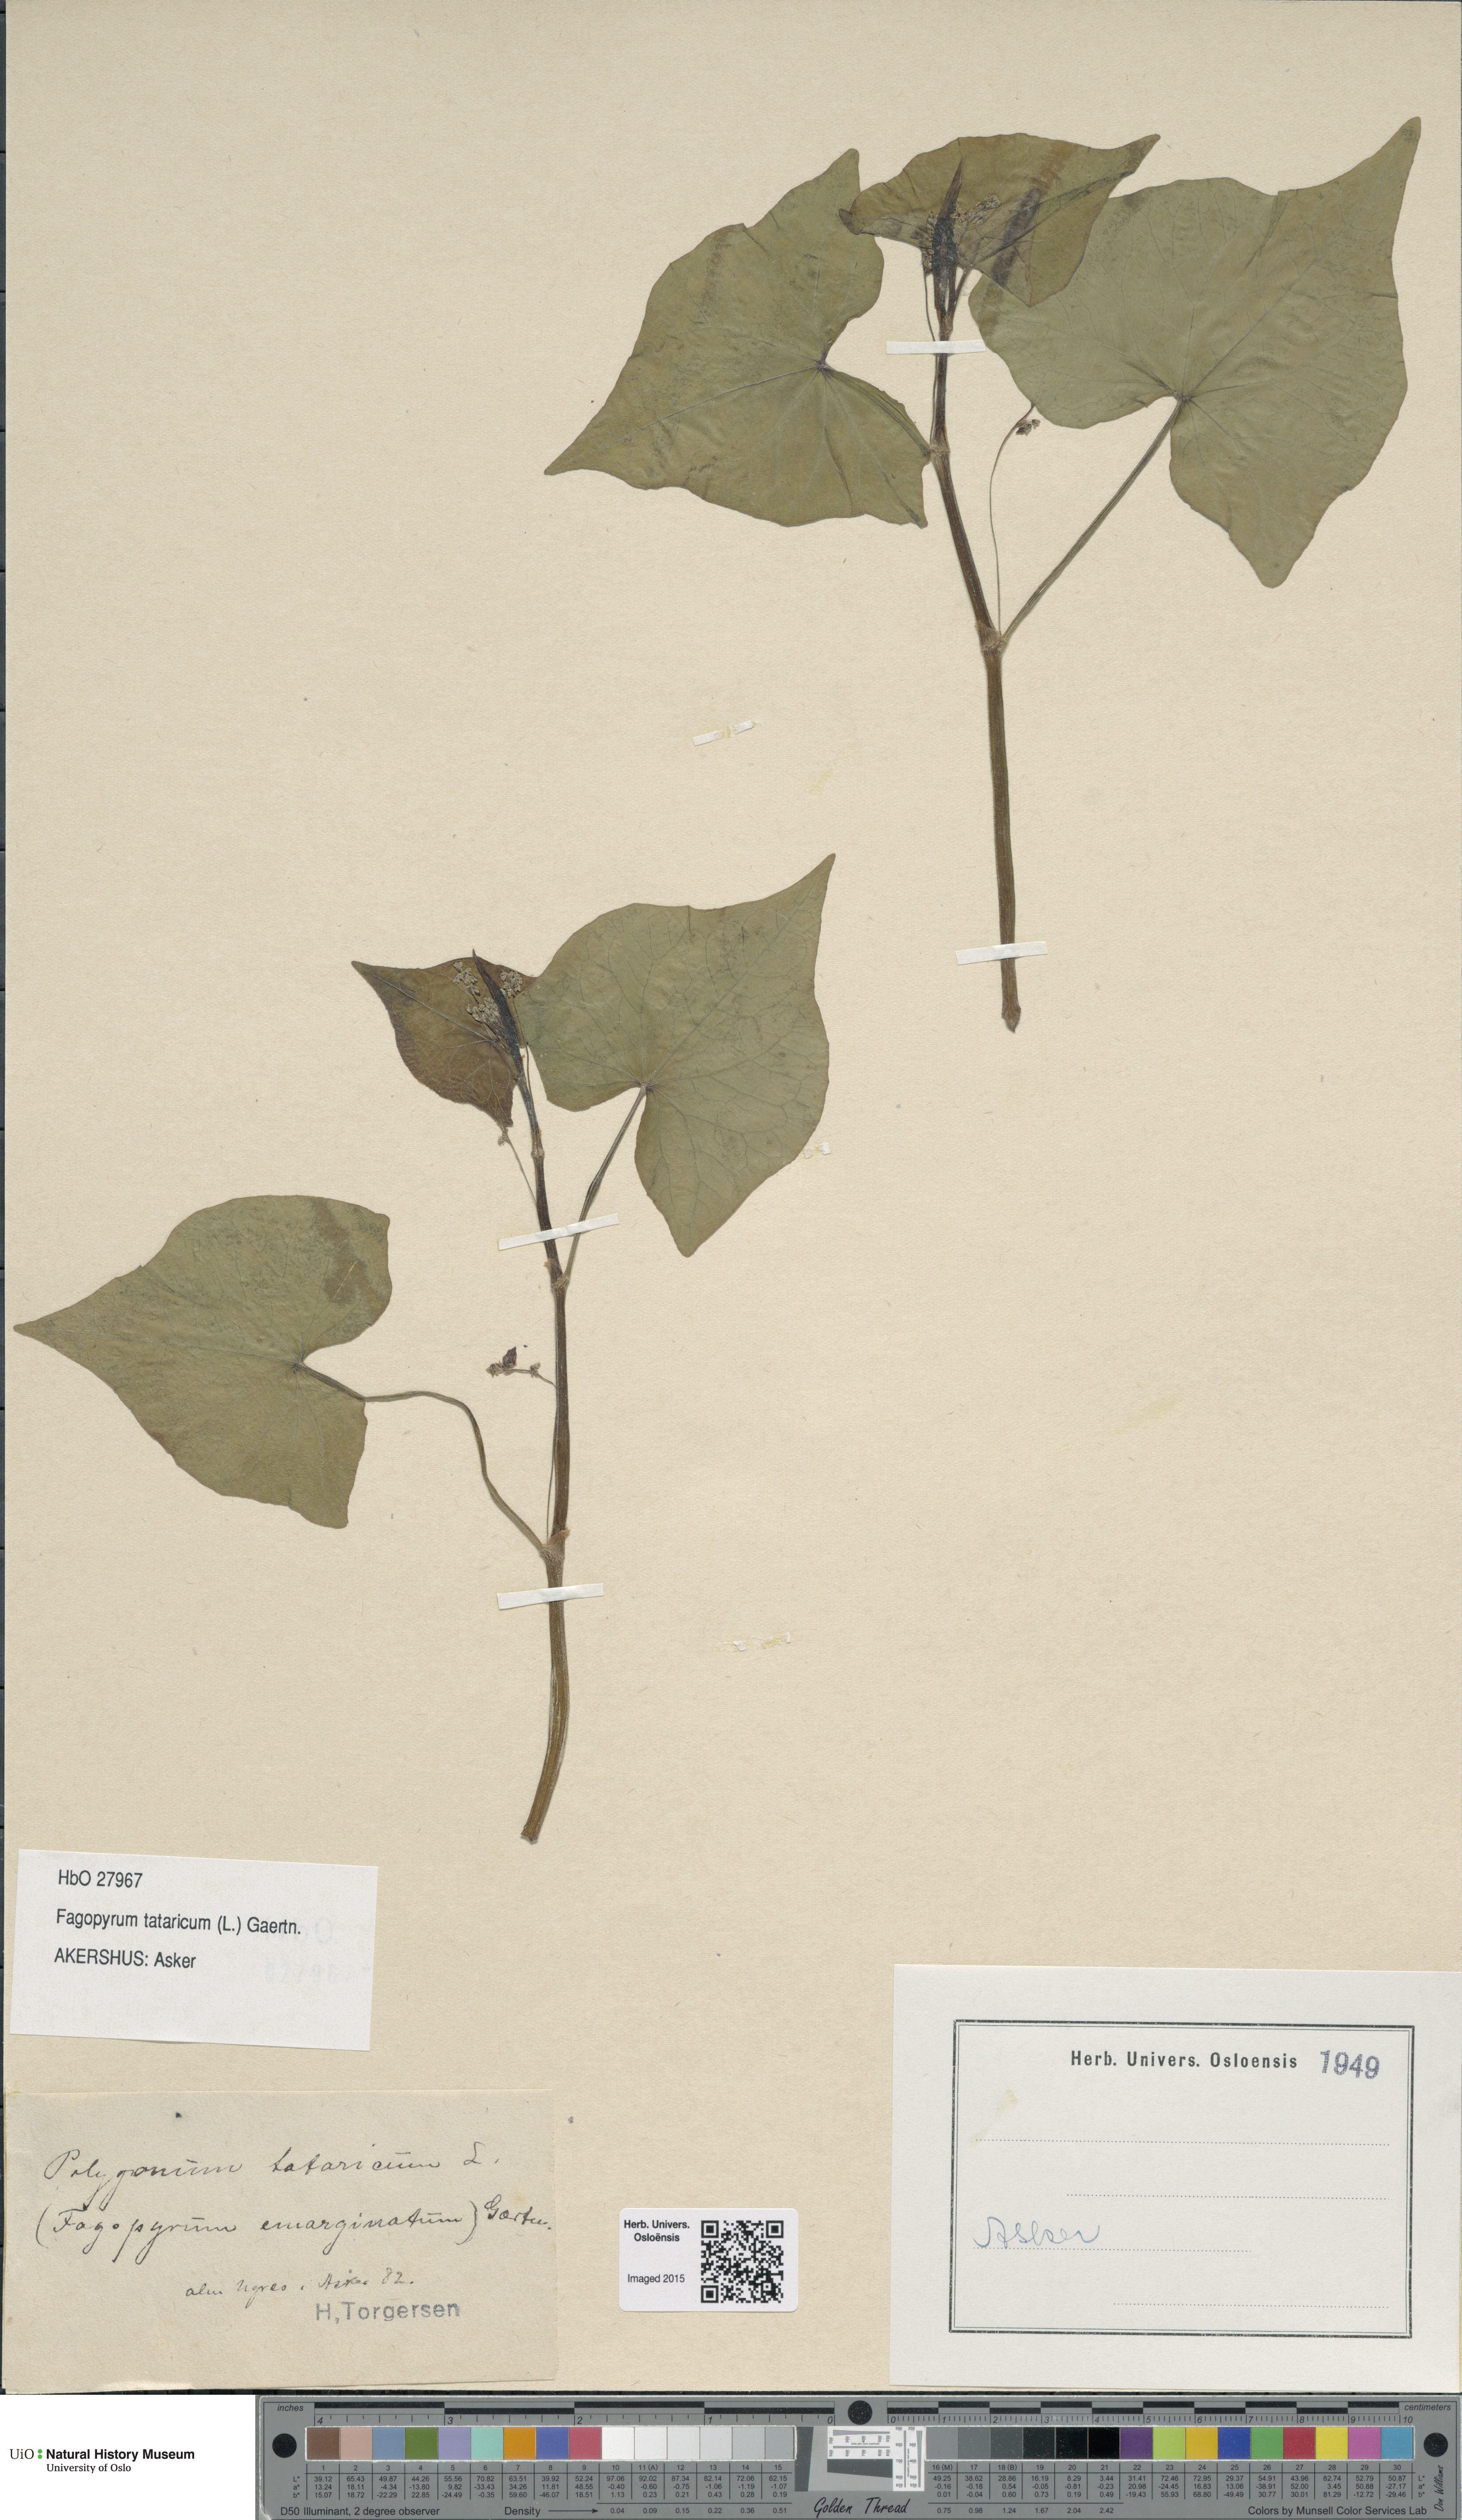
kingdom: Plantae
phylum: Tracheophyta
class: Magnoliopsida
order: Caryophyllales
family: Polygonaceae
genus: Fagopyrum
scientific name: Fagopyrum tataricum
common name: Green buckwheat
